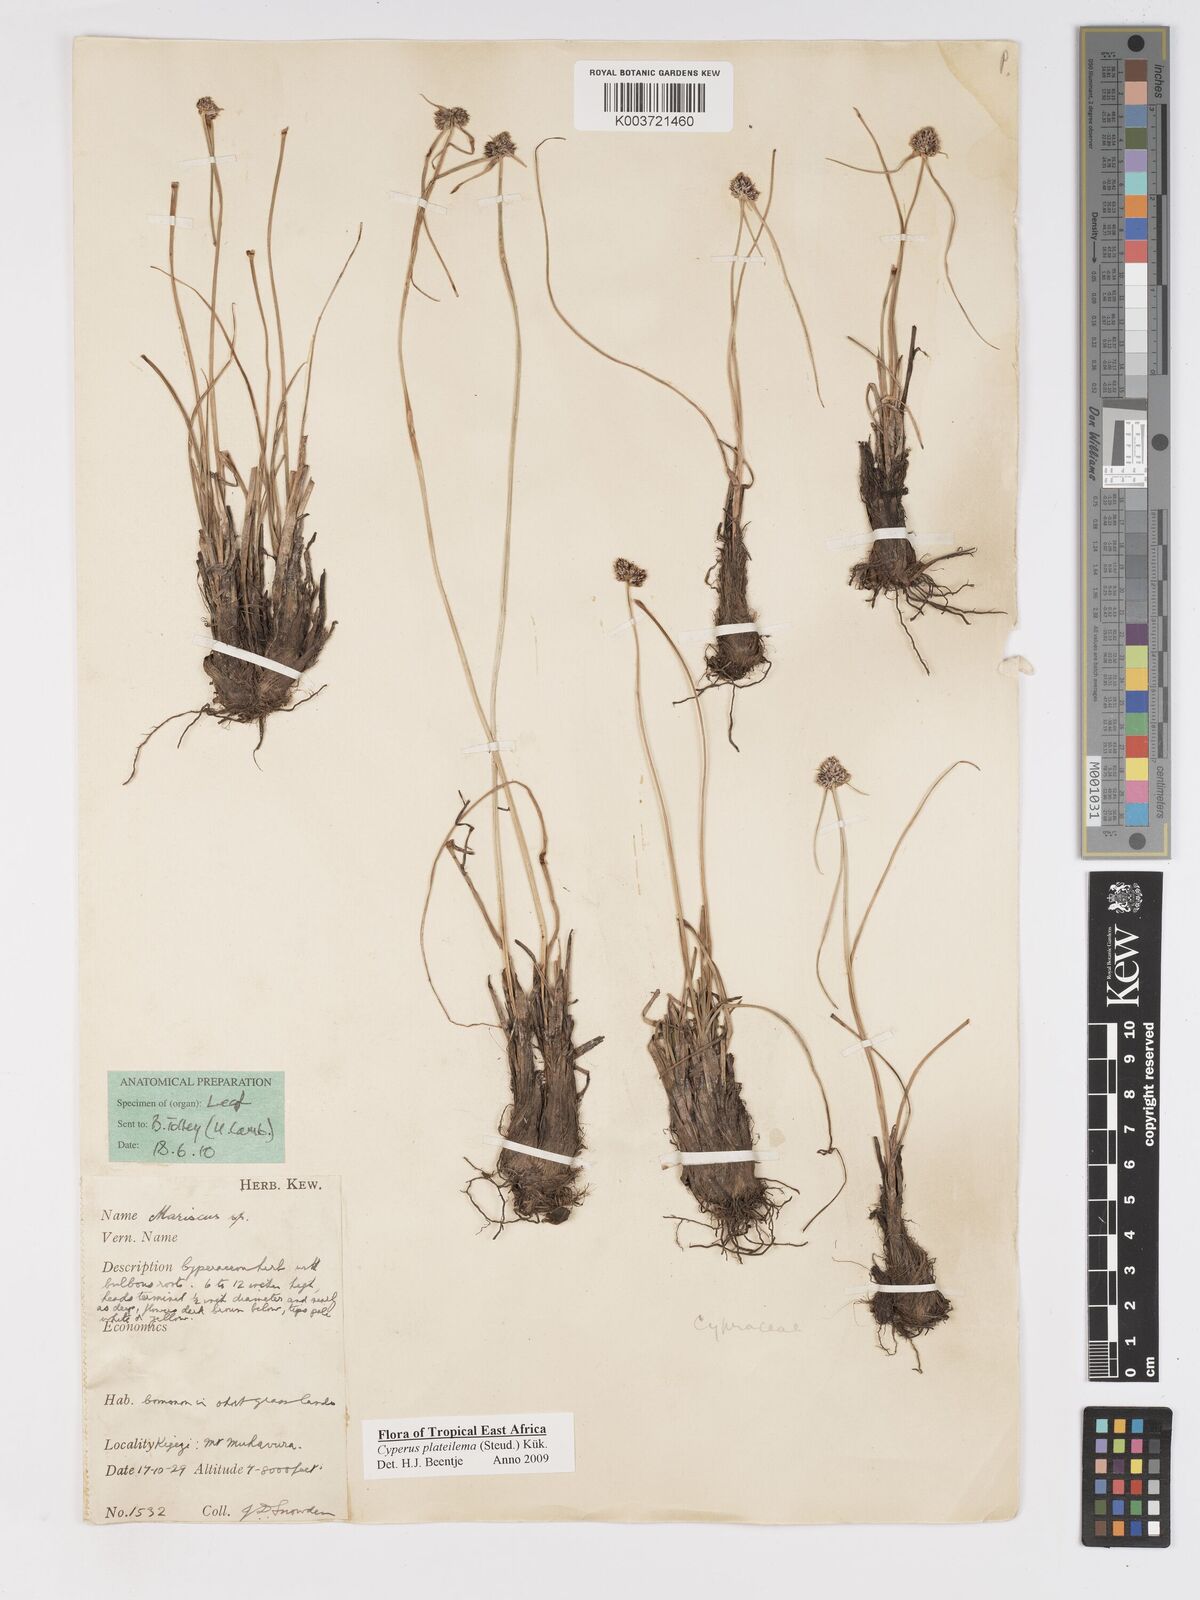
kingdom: Plantae
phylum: Tracheophyta
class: Liliopsida
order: Poales
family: Cyperaceae
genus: Cyperus
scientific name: Cyperus plateilema
